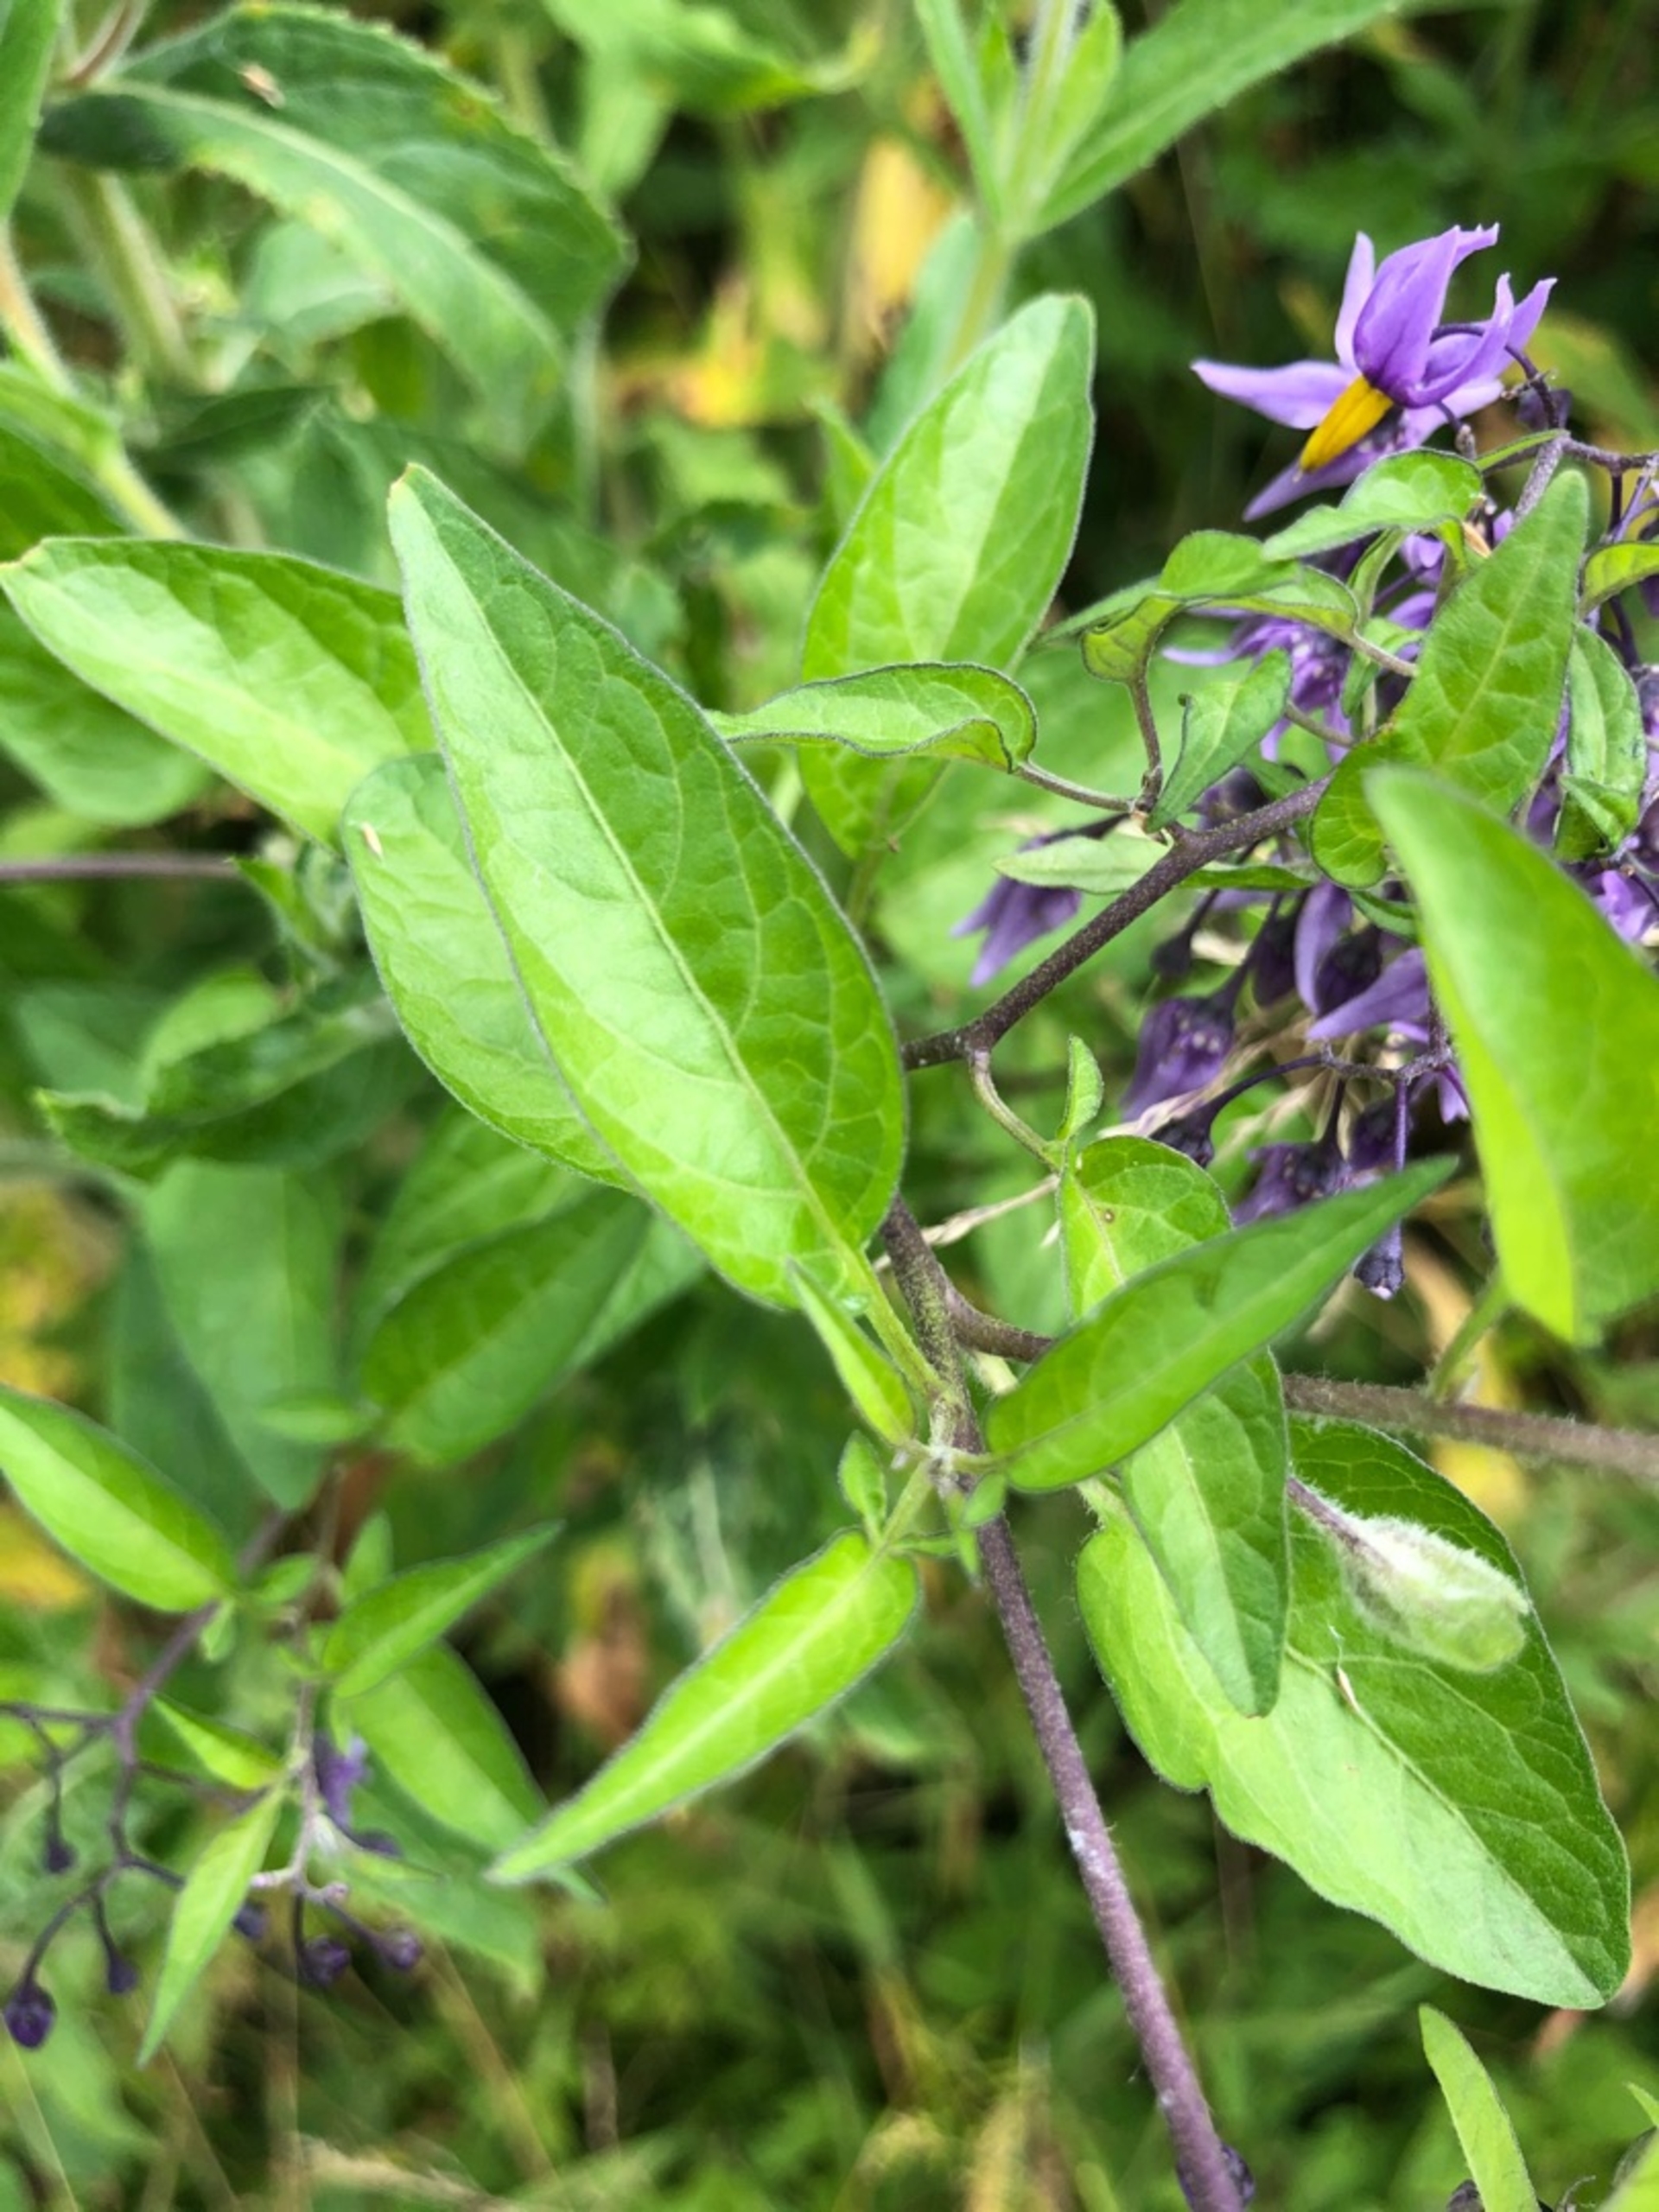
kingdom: Plantae
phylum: Tracheophyta
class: Magnoliopsida
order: Solanales
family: Solanaceae
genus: Solanum
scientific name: Solanum dulcamara
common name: Bittersød natskygge
